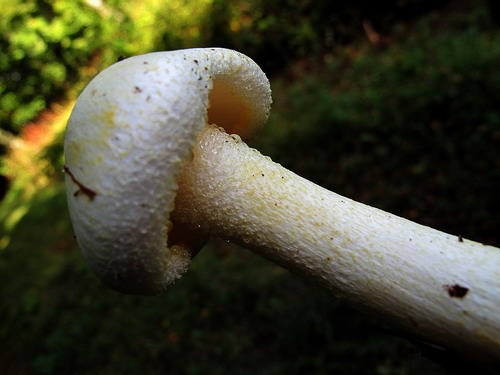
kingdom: Fungi
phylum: Basidiomycota
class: Agaricomycetes
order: Agaricales
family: Hygrophoraceae
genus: Hygrophorus
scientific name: Hygrophorus chrysodon
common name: gulfnugget sneglehat
